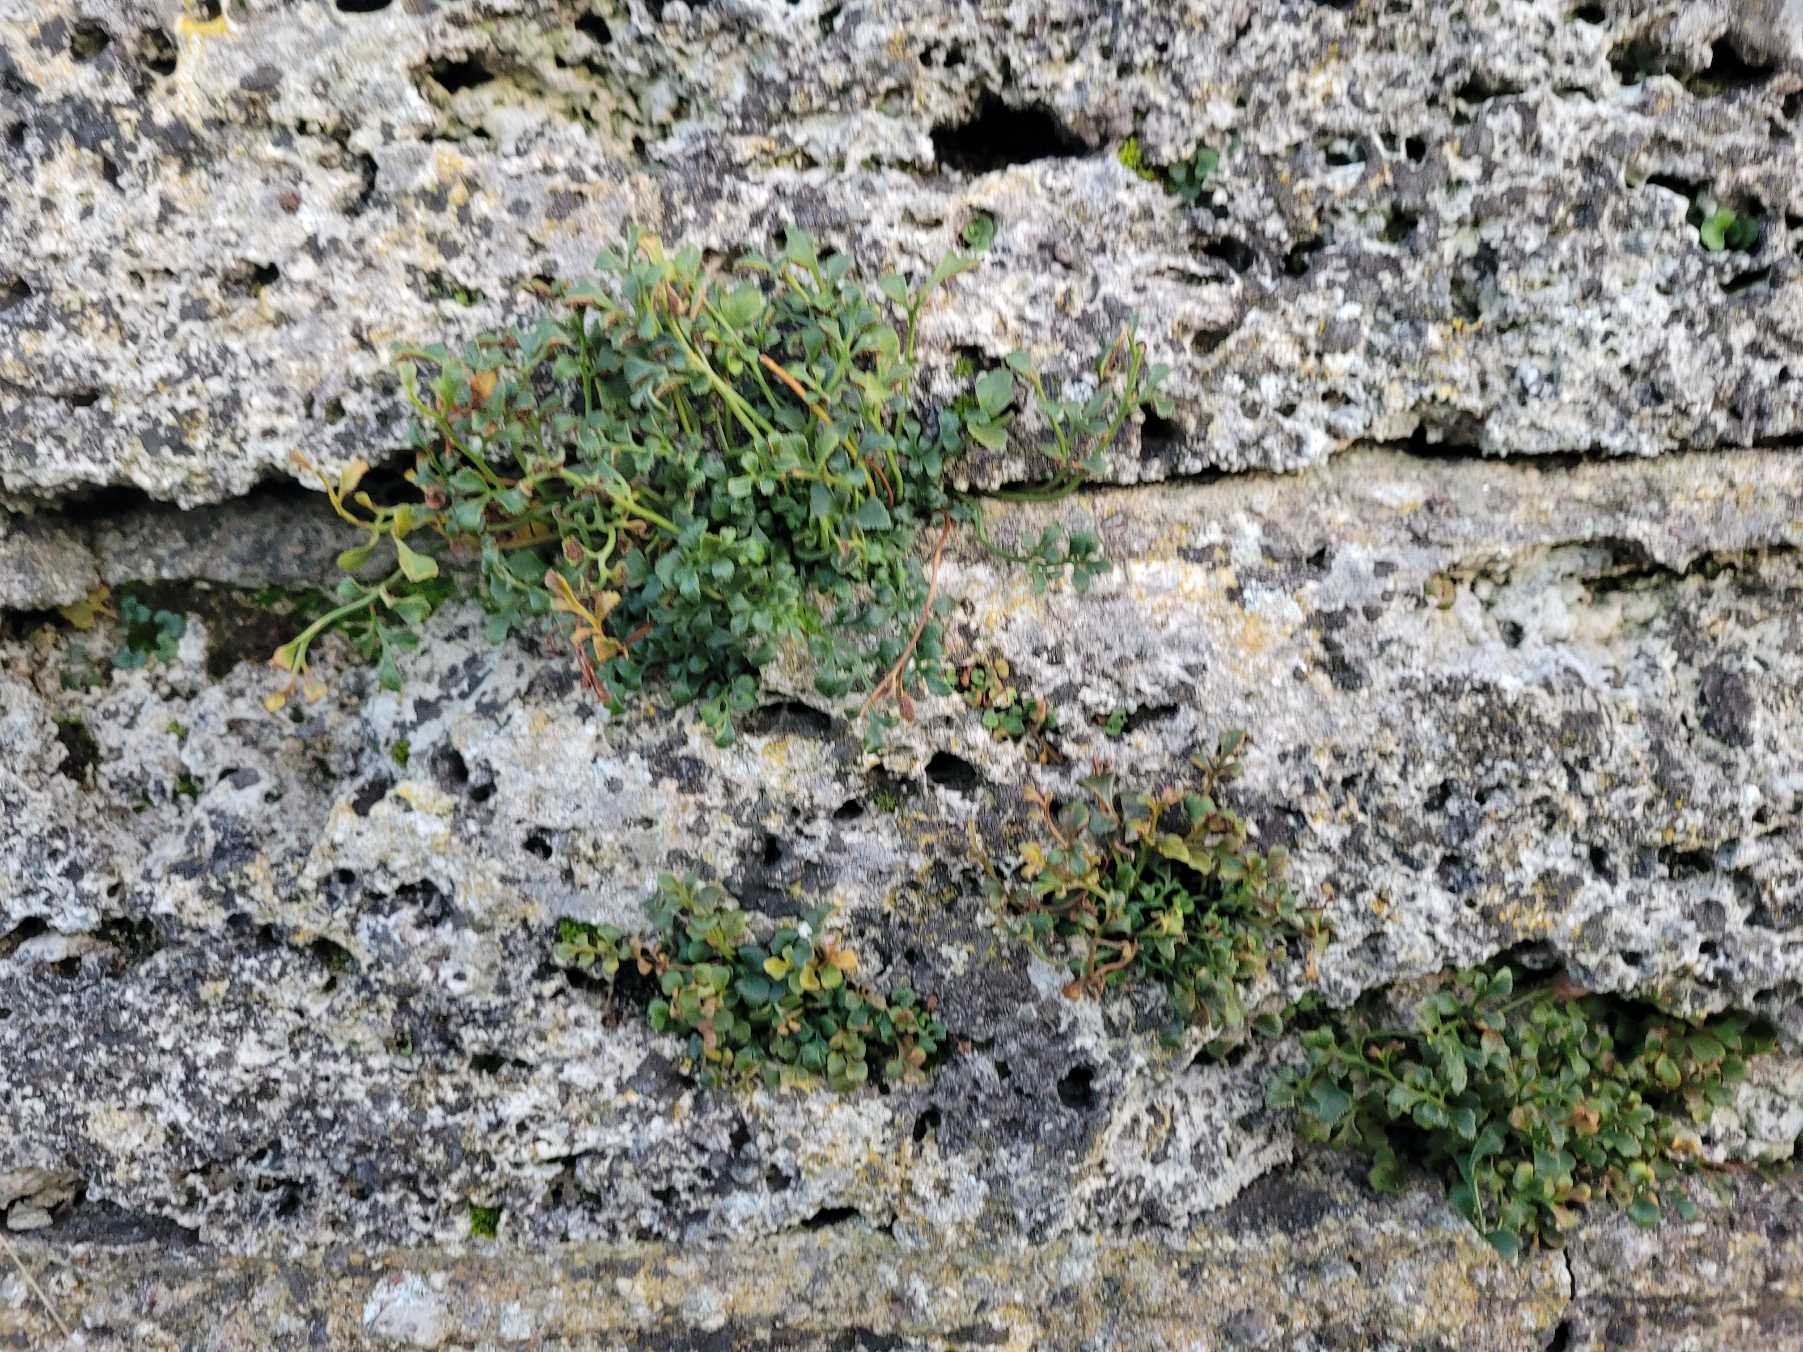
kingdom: Plantae
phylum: Tracheophyta
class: Polypodiopsida
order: Polypodiales
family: Aspleniaceae
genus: Asplenium
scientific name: Asplenium ruta-muraria
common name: Murrude
